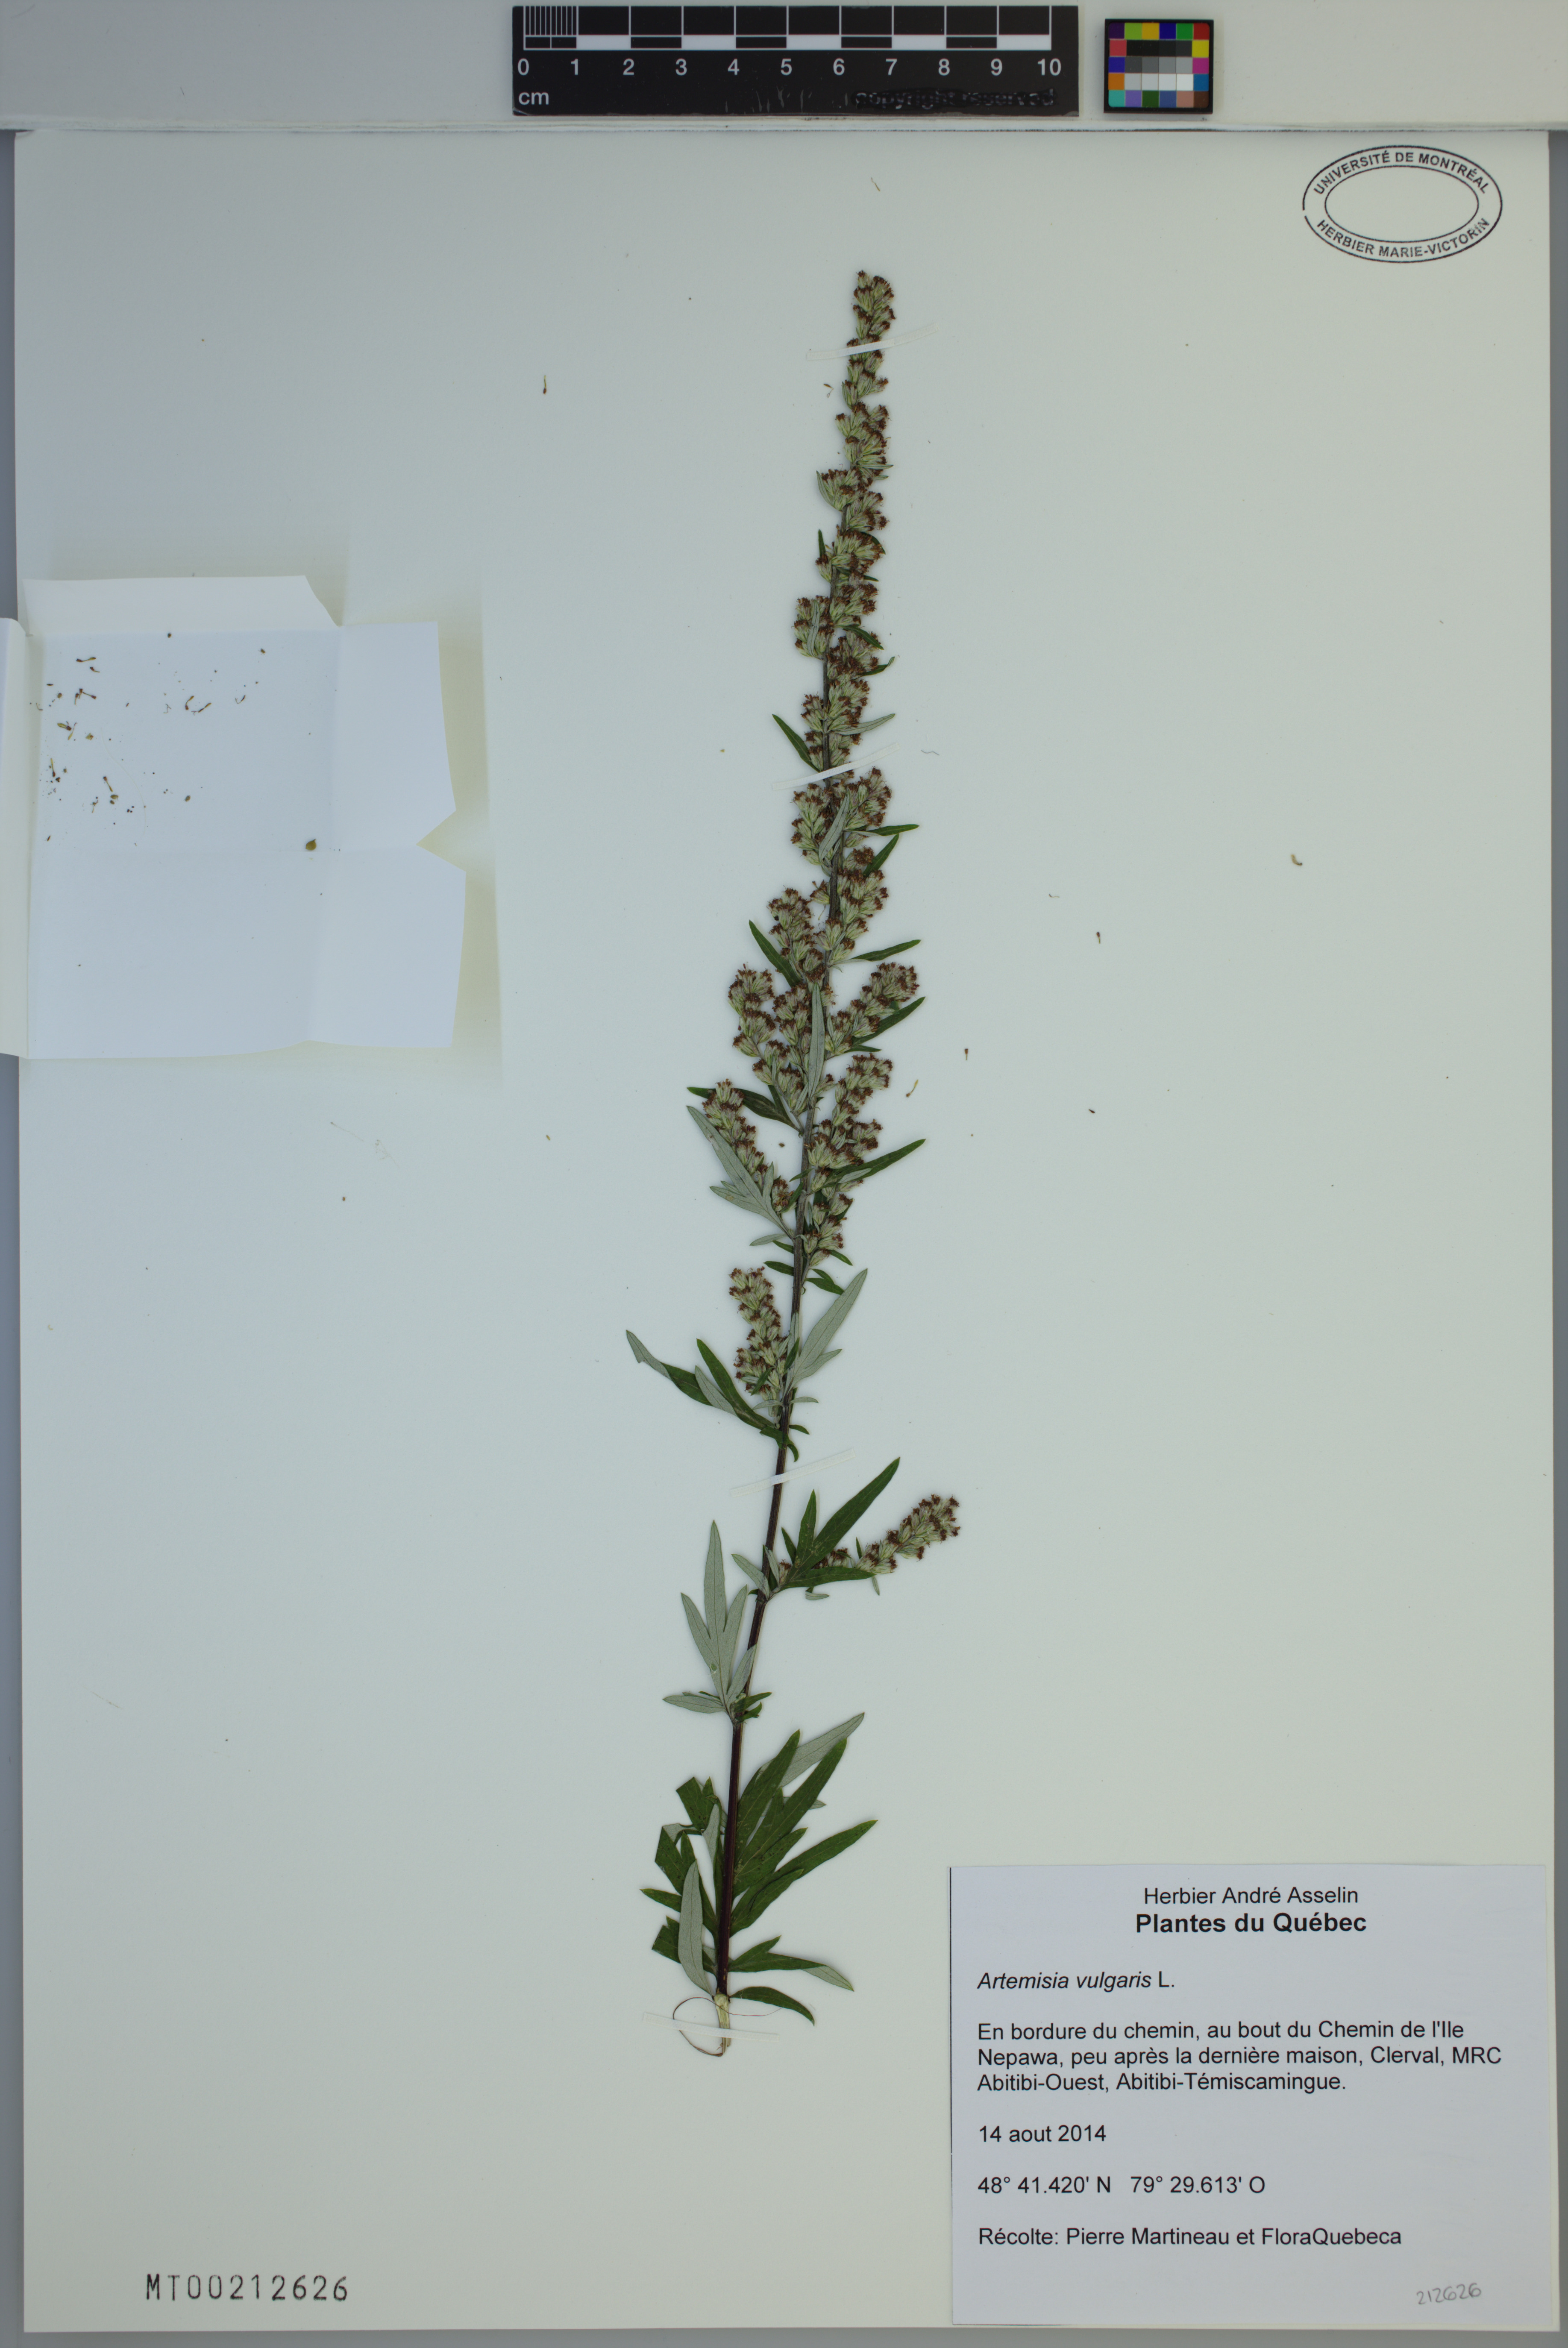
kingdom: Plantae
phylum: Tracheophyta
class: Magnoliopsida
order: Asterales
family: Asteraceae
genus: Artemisia
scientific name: Artemisia vulgaris
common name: Mugwort
